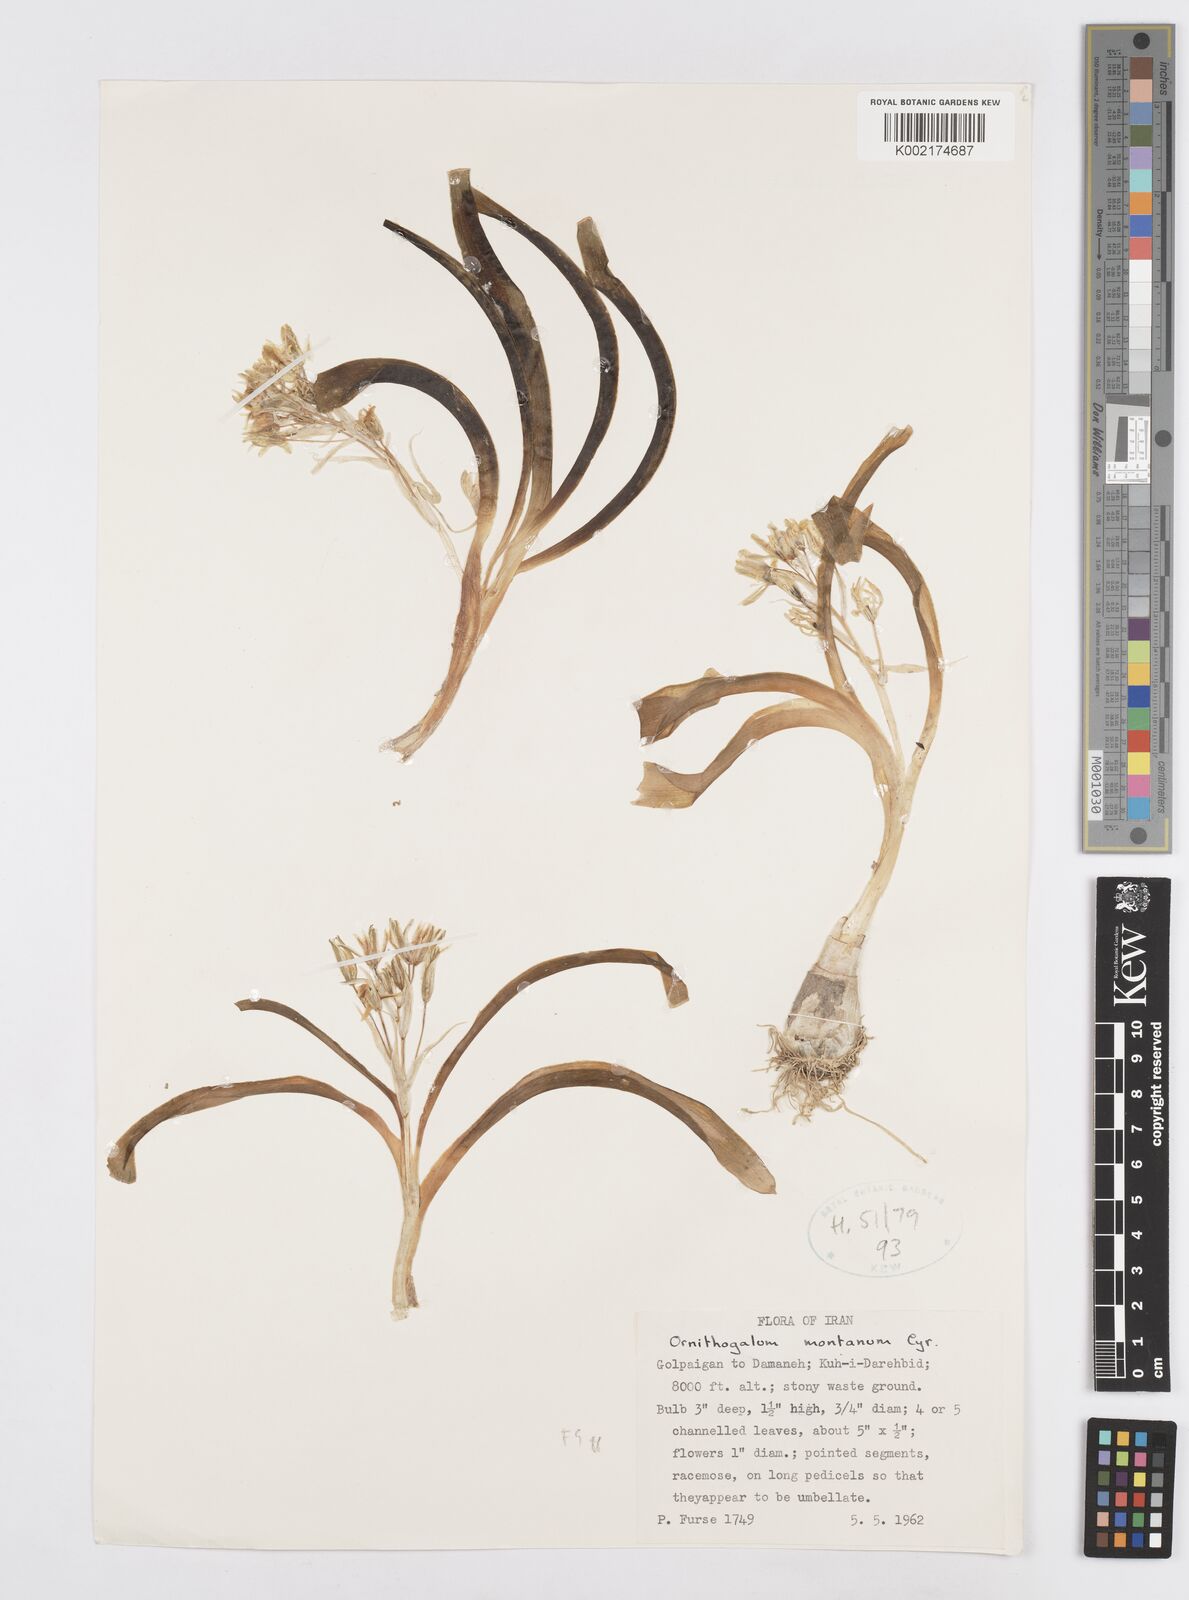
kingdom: Plantae
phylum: Tracheophyta
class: Liliopsida
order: Asparagales
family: Asparagaceae
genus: Ornithogalum
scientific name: Ornithogalum
